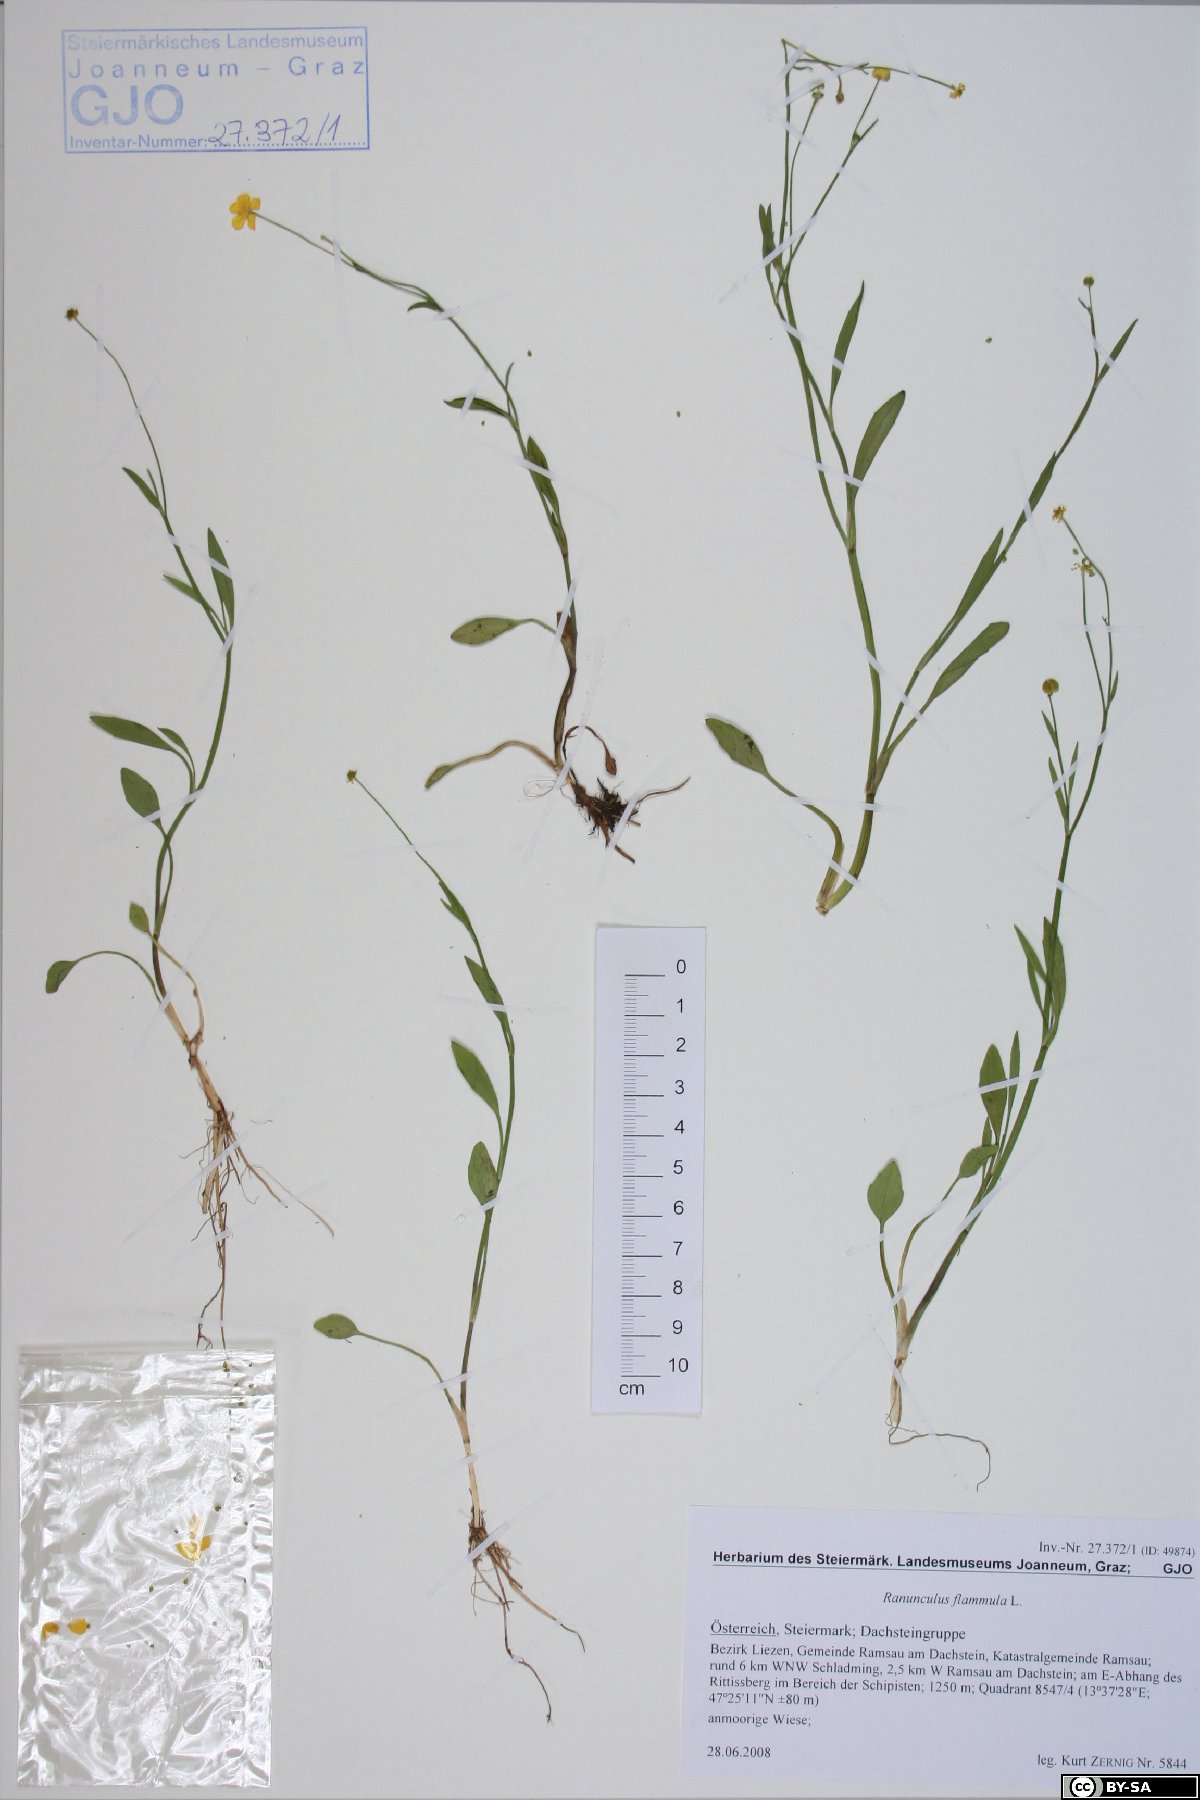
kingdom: Plantae
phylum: Tracheophyta
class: Magnoliopsida
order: Ranunculales
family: Ranunculaceae
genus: Ranunculus
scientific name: Ranunculus flammula
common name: Lesser spearwort
